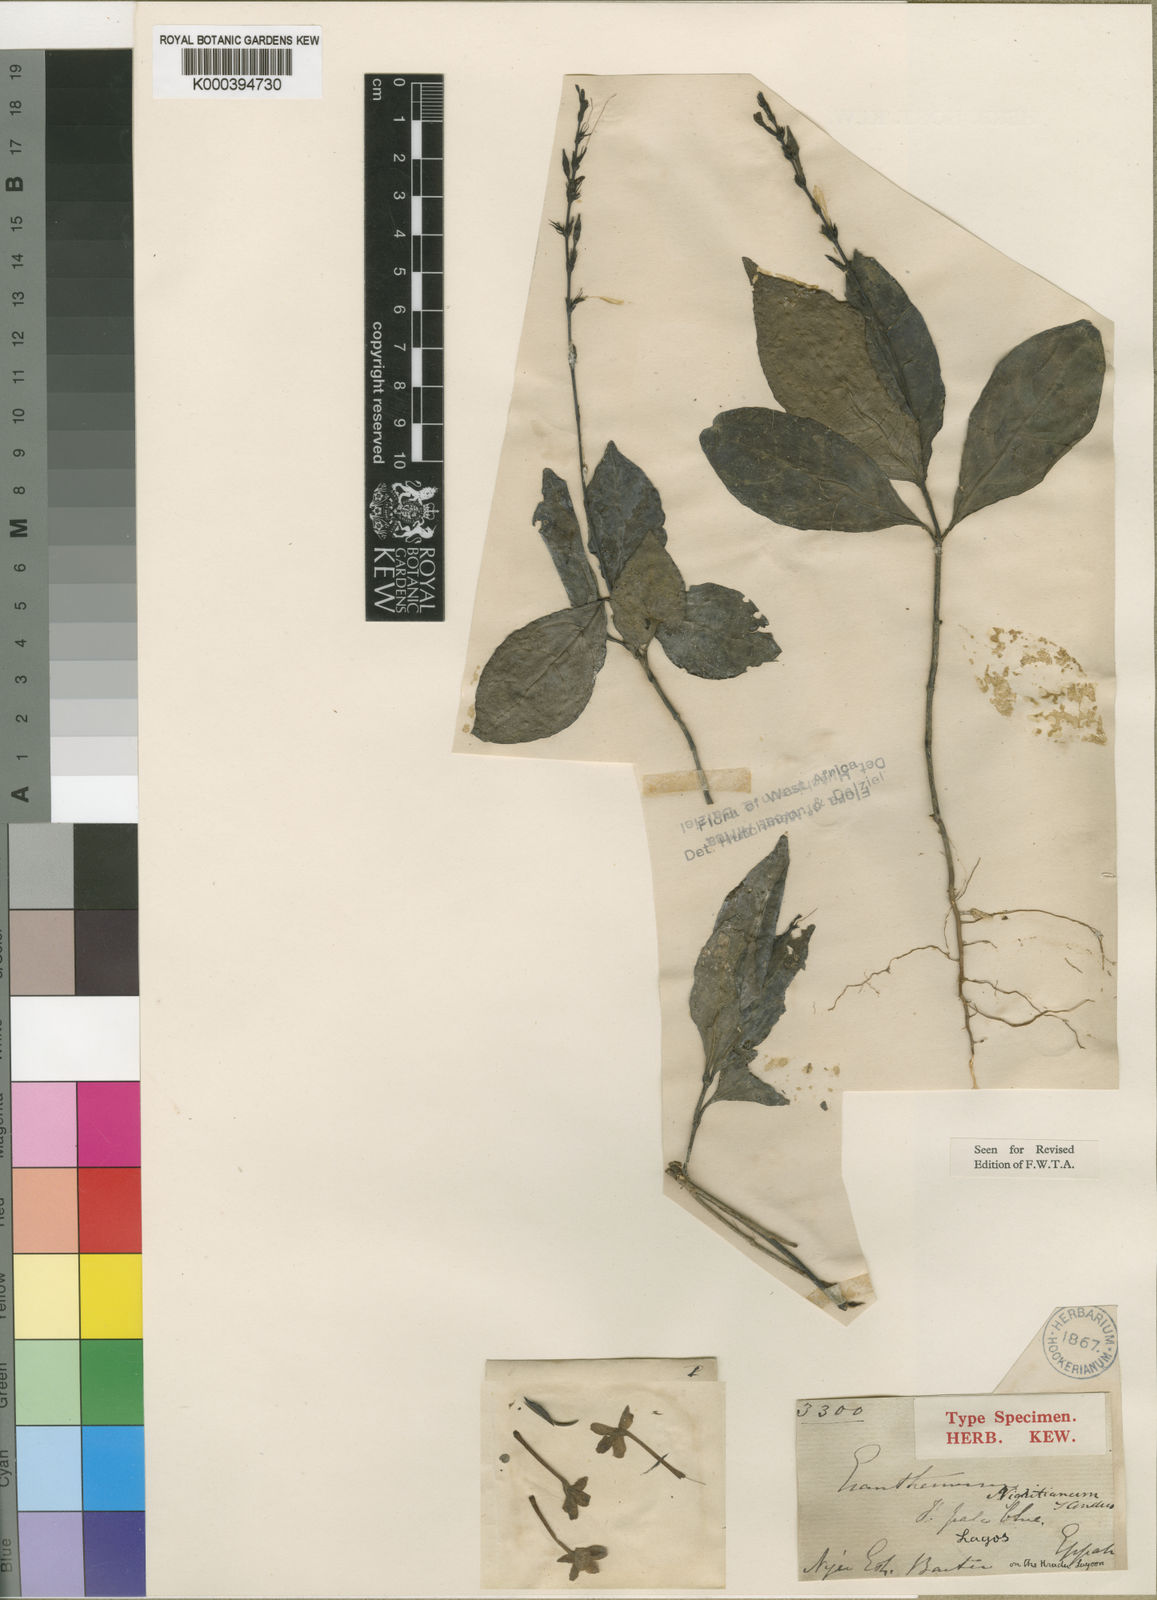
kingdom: Plantae
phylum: Tracheophyta
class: Magnoliopsida
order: Lamiales
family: Acanthaceae
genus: Pseuderanthemum
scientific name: Pseuderanthemum tunicatum
